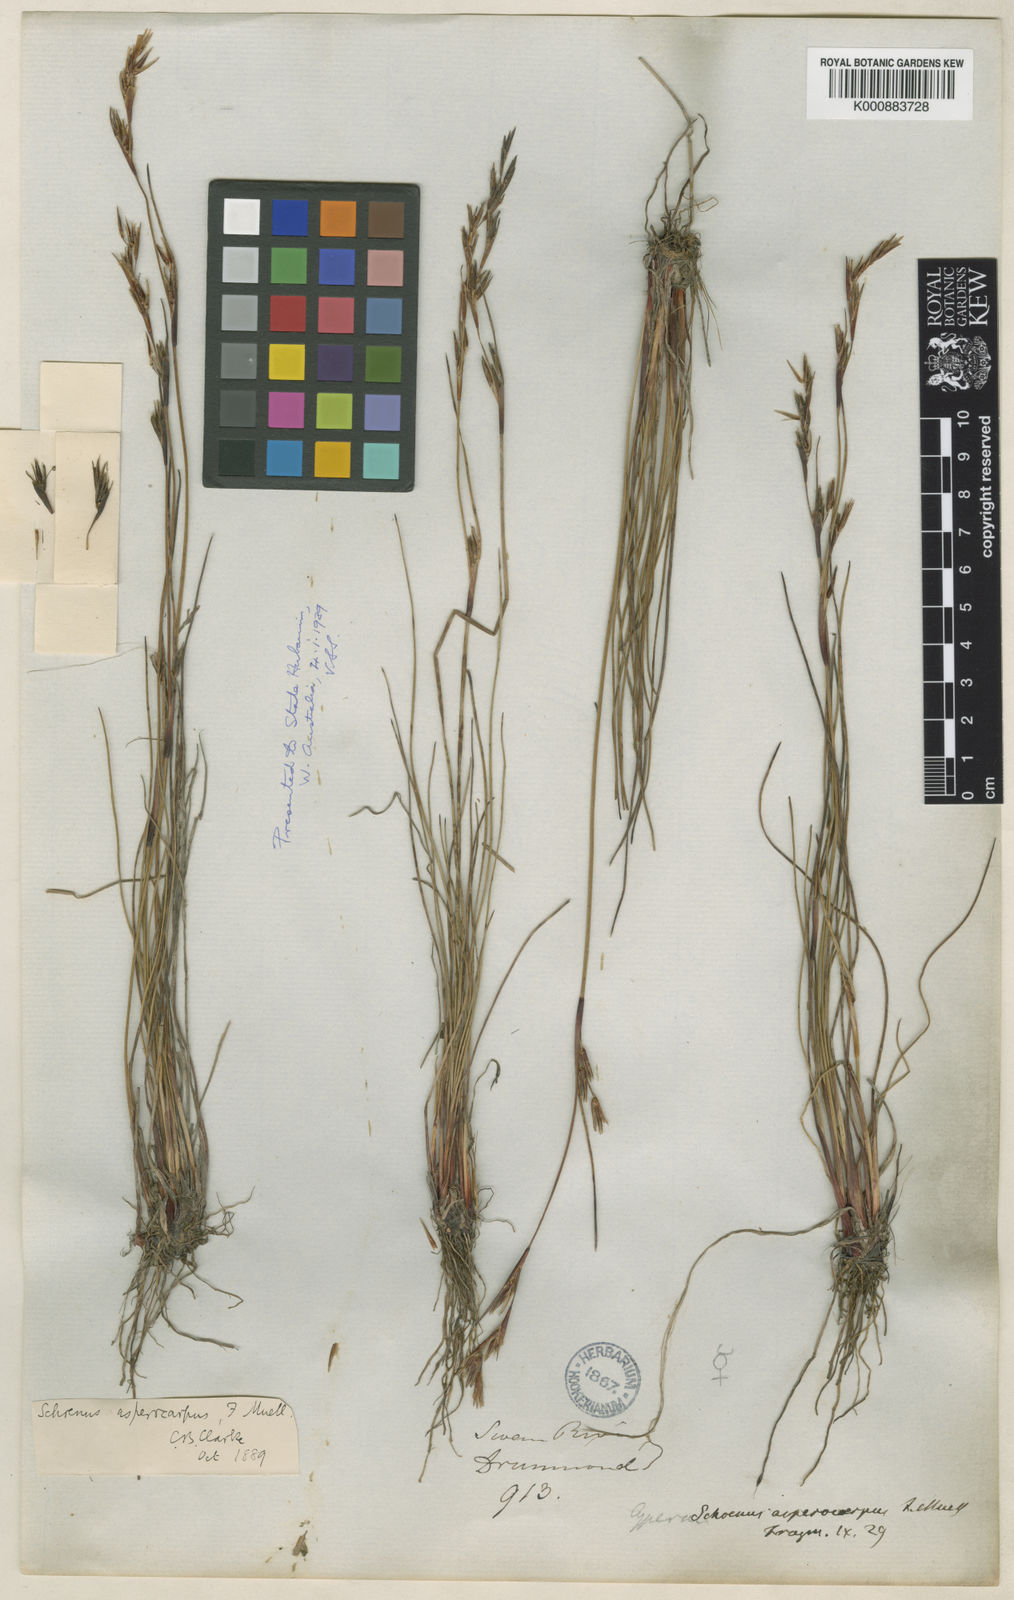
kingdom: Plantae
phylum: Tracheophyta
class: Liliopsida
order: Poales
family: Cyperaceae
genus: Schoenus
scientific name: Schoenus asperocarpus
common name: Poison sedge
